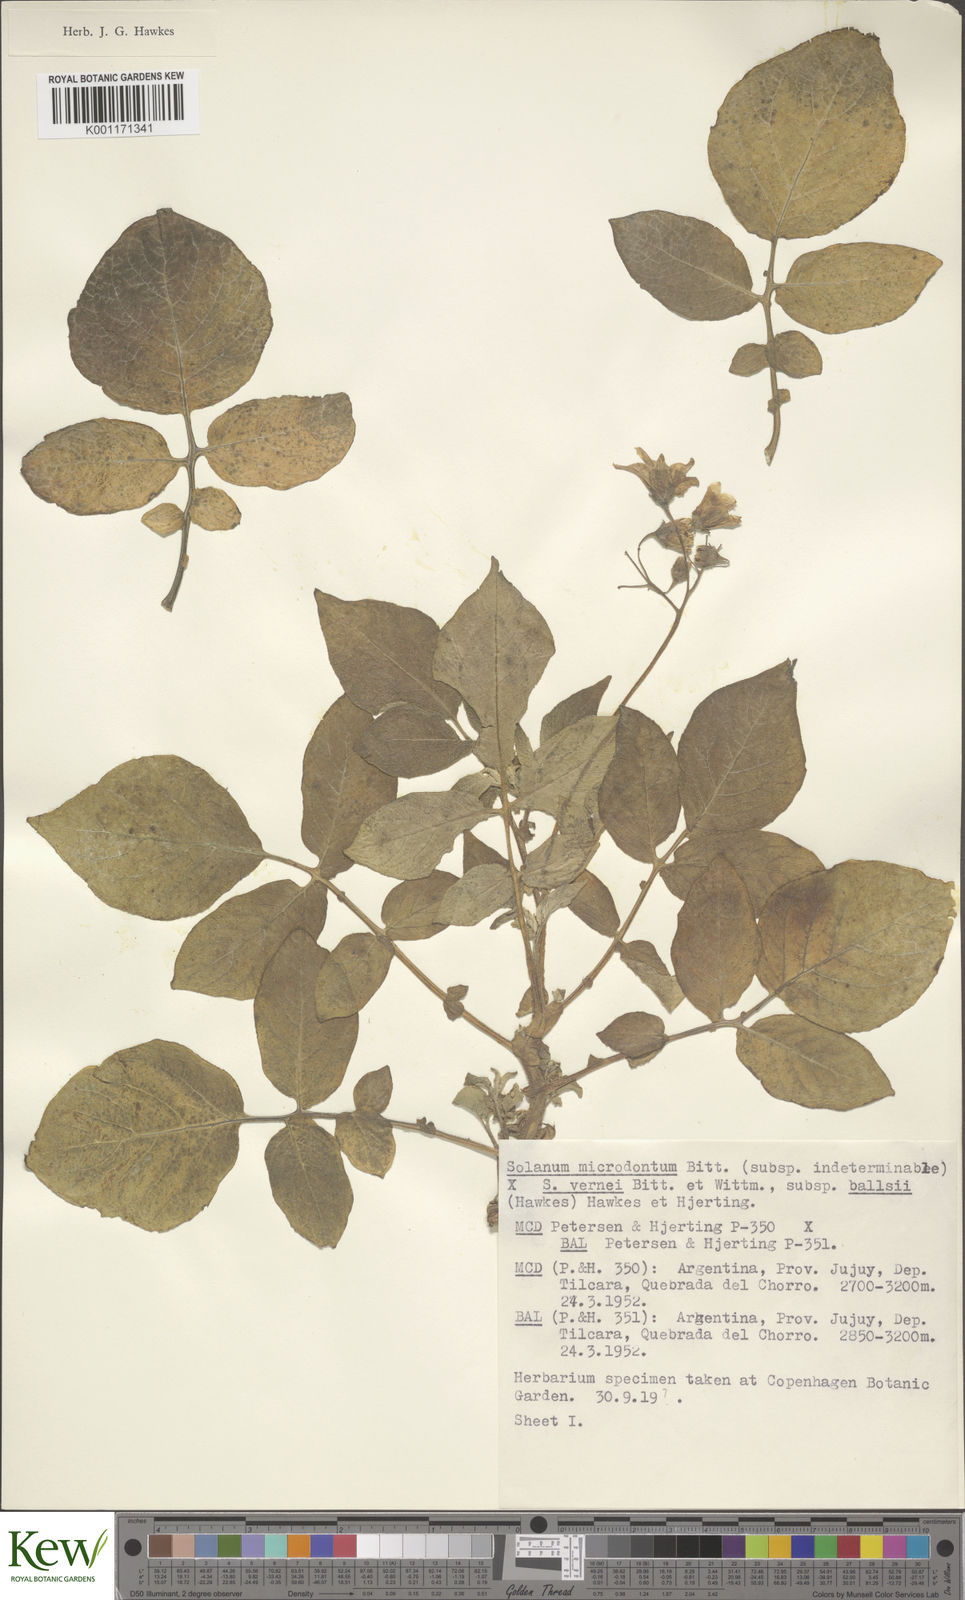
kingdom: Plantae
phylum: Tracheophyta
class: Magnoliopsida
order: Solanales
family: Solanaceae
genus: Solanum
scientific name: Solanum vernei
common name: Purple potato
